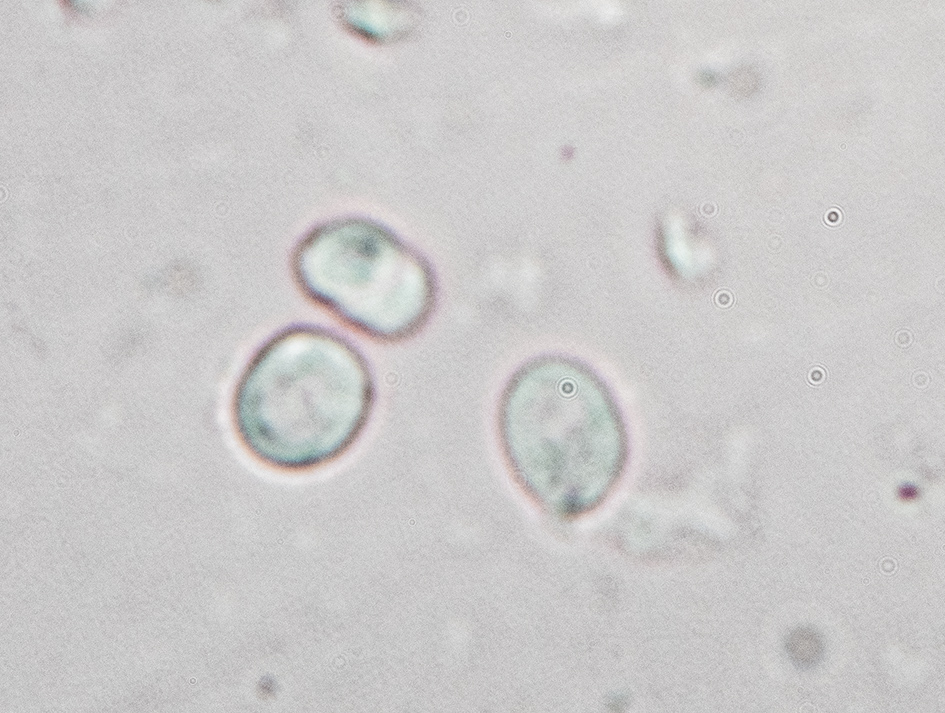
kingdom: Fungi
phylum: Basidiomycota
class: Agaricomycetes
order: Agaricales
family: Tricholomataceae
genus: Clitocybe
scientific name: Clitocybe rivulosa
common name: eng-tragthat
